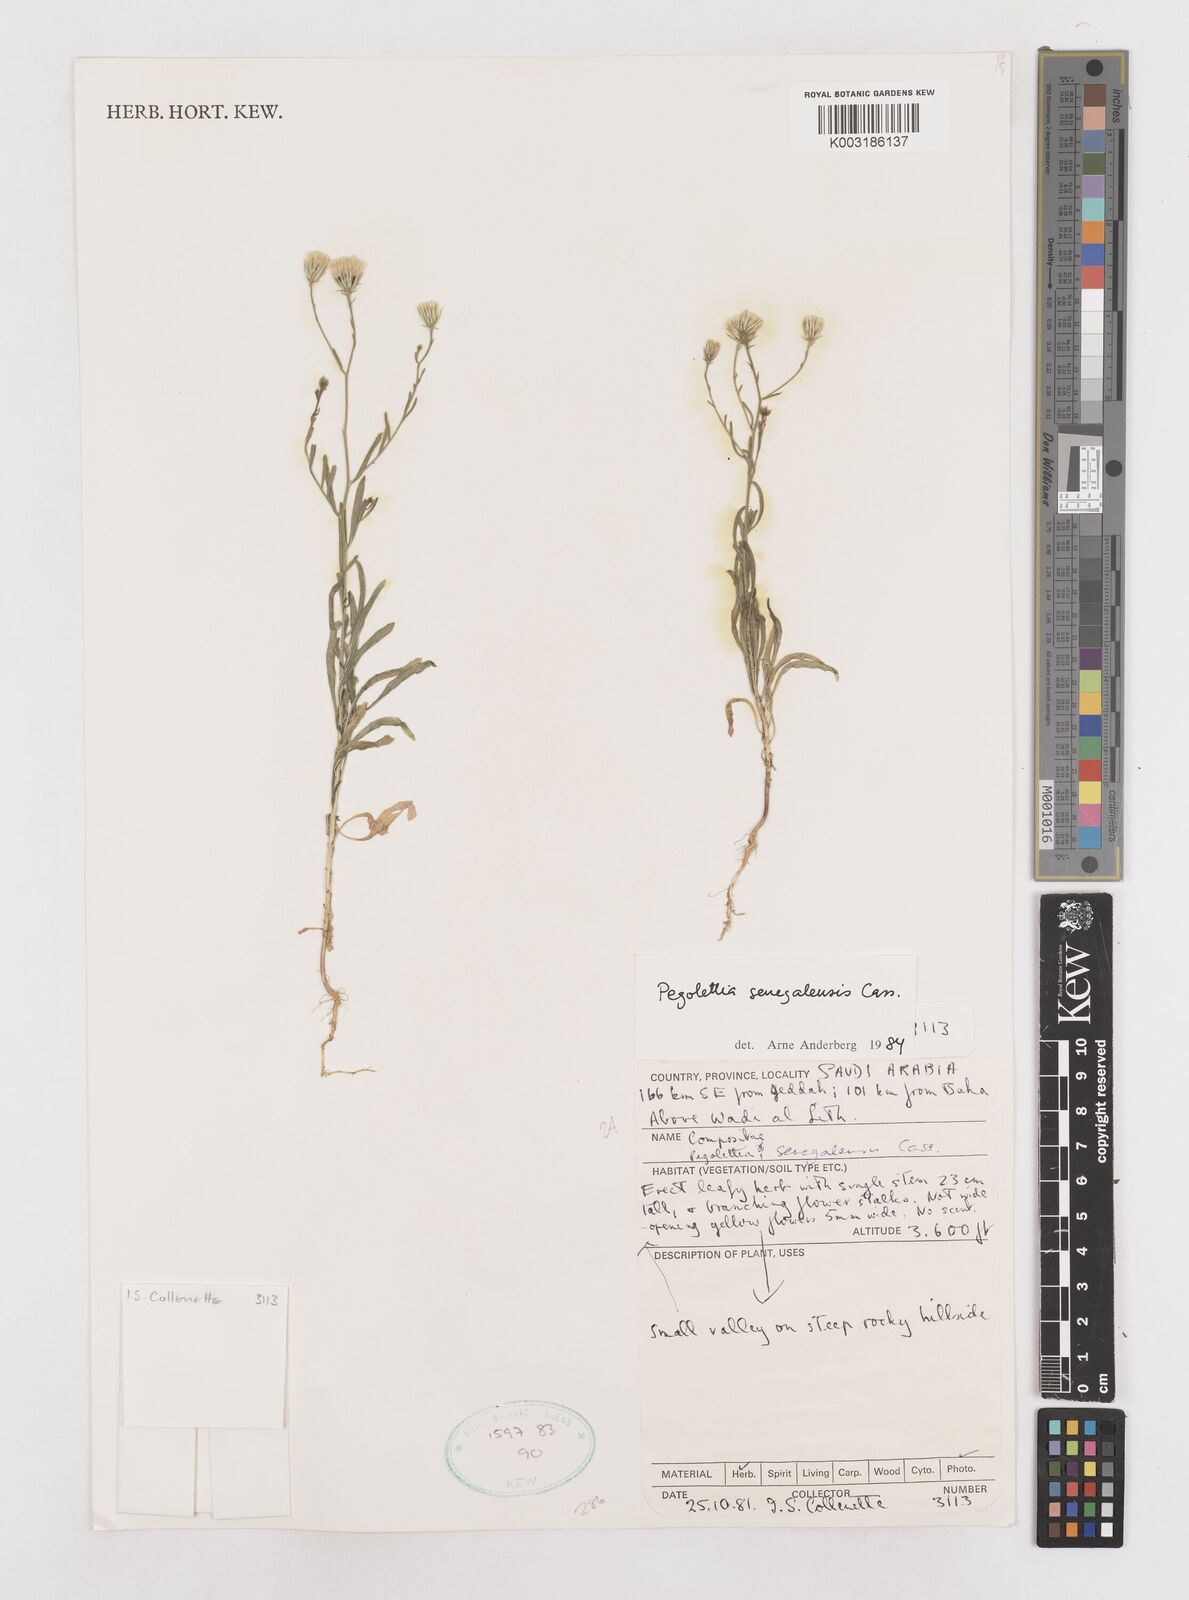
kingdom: Plantae
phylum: Tracheophyta
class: Magnoliopsida
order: Asterales
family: Asteraceae
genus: Pegolettia
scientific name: Pegolettia senegalensis
